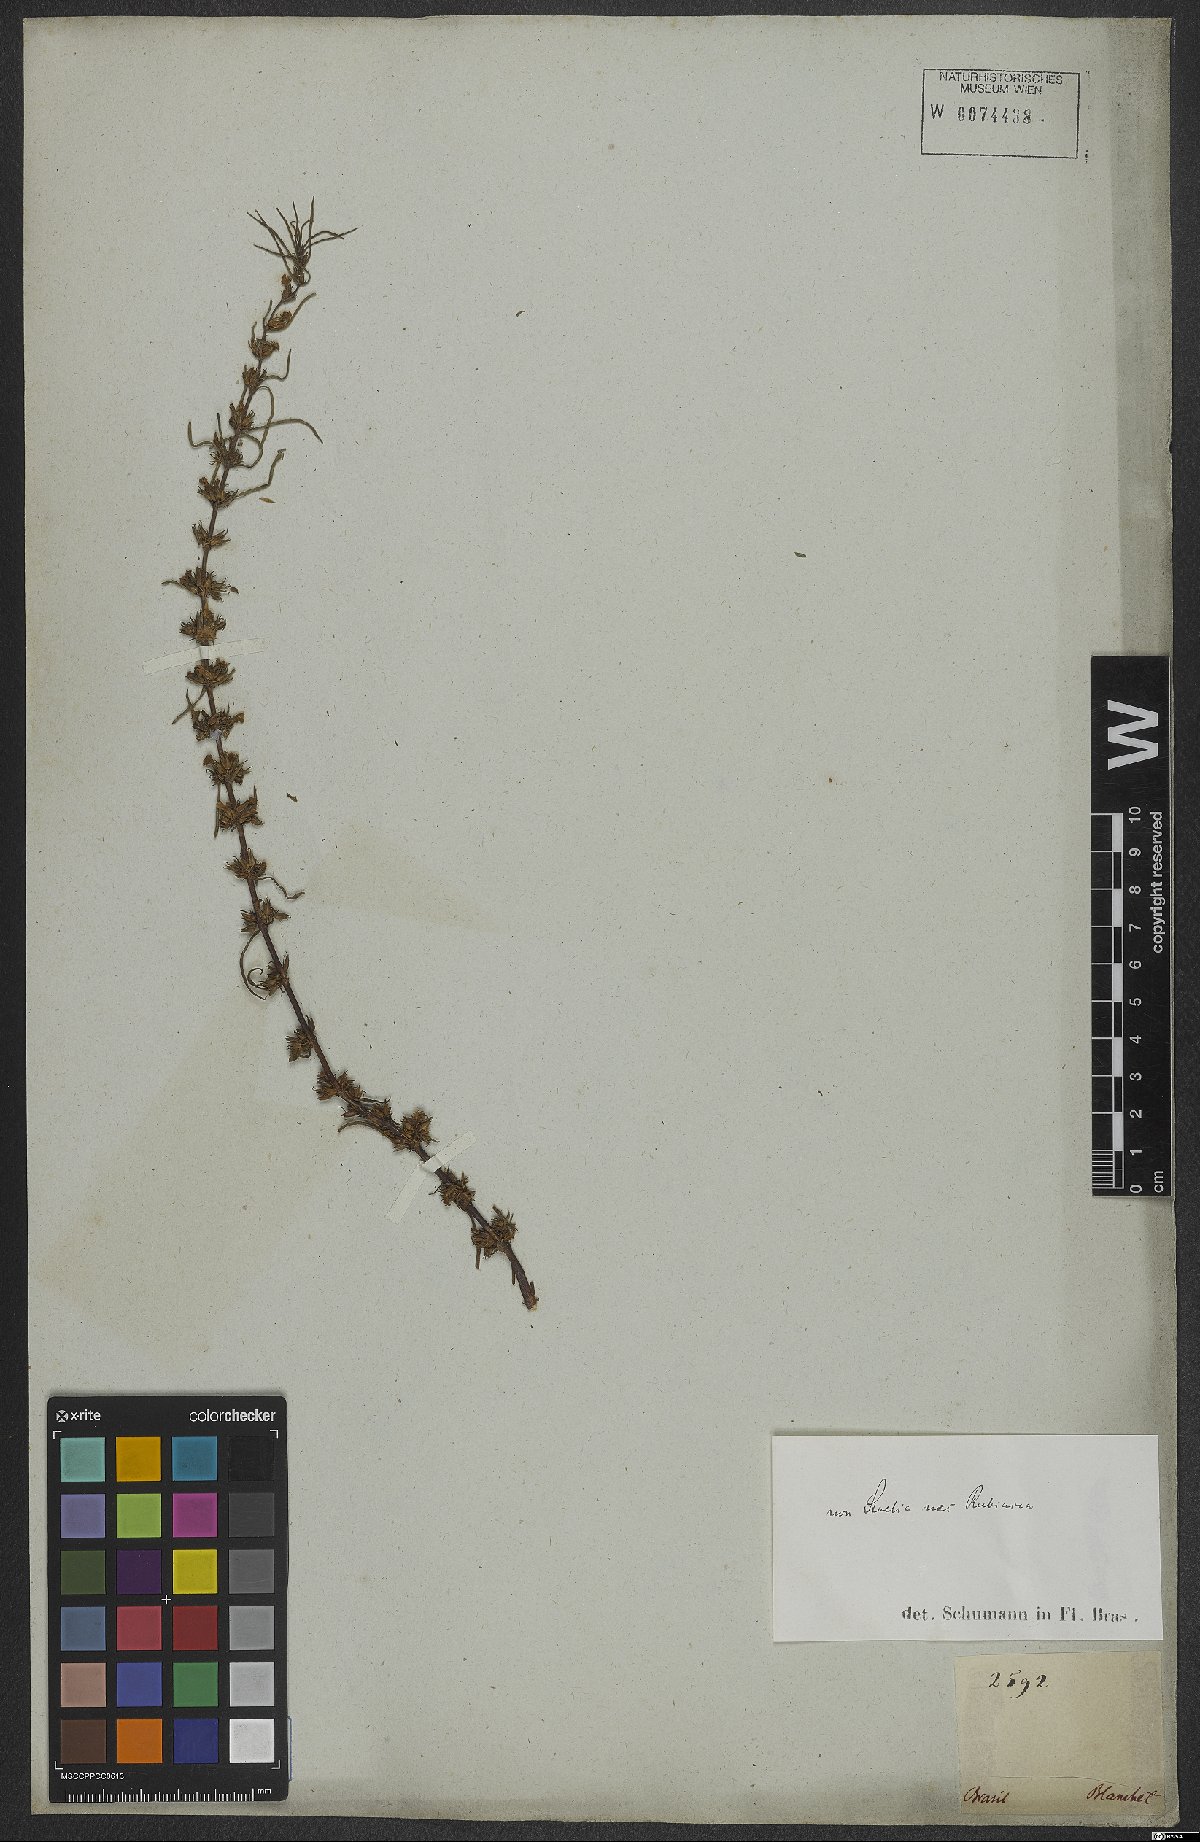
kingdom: Plantae
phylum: Tracheophyta
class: Magnoliopsida
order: Lamiales
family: Scrophulariaceae
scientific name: Scrophulariaceae
